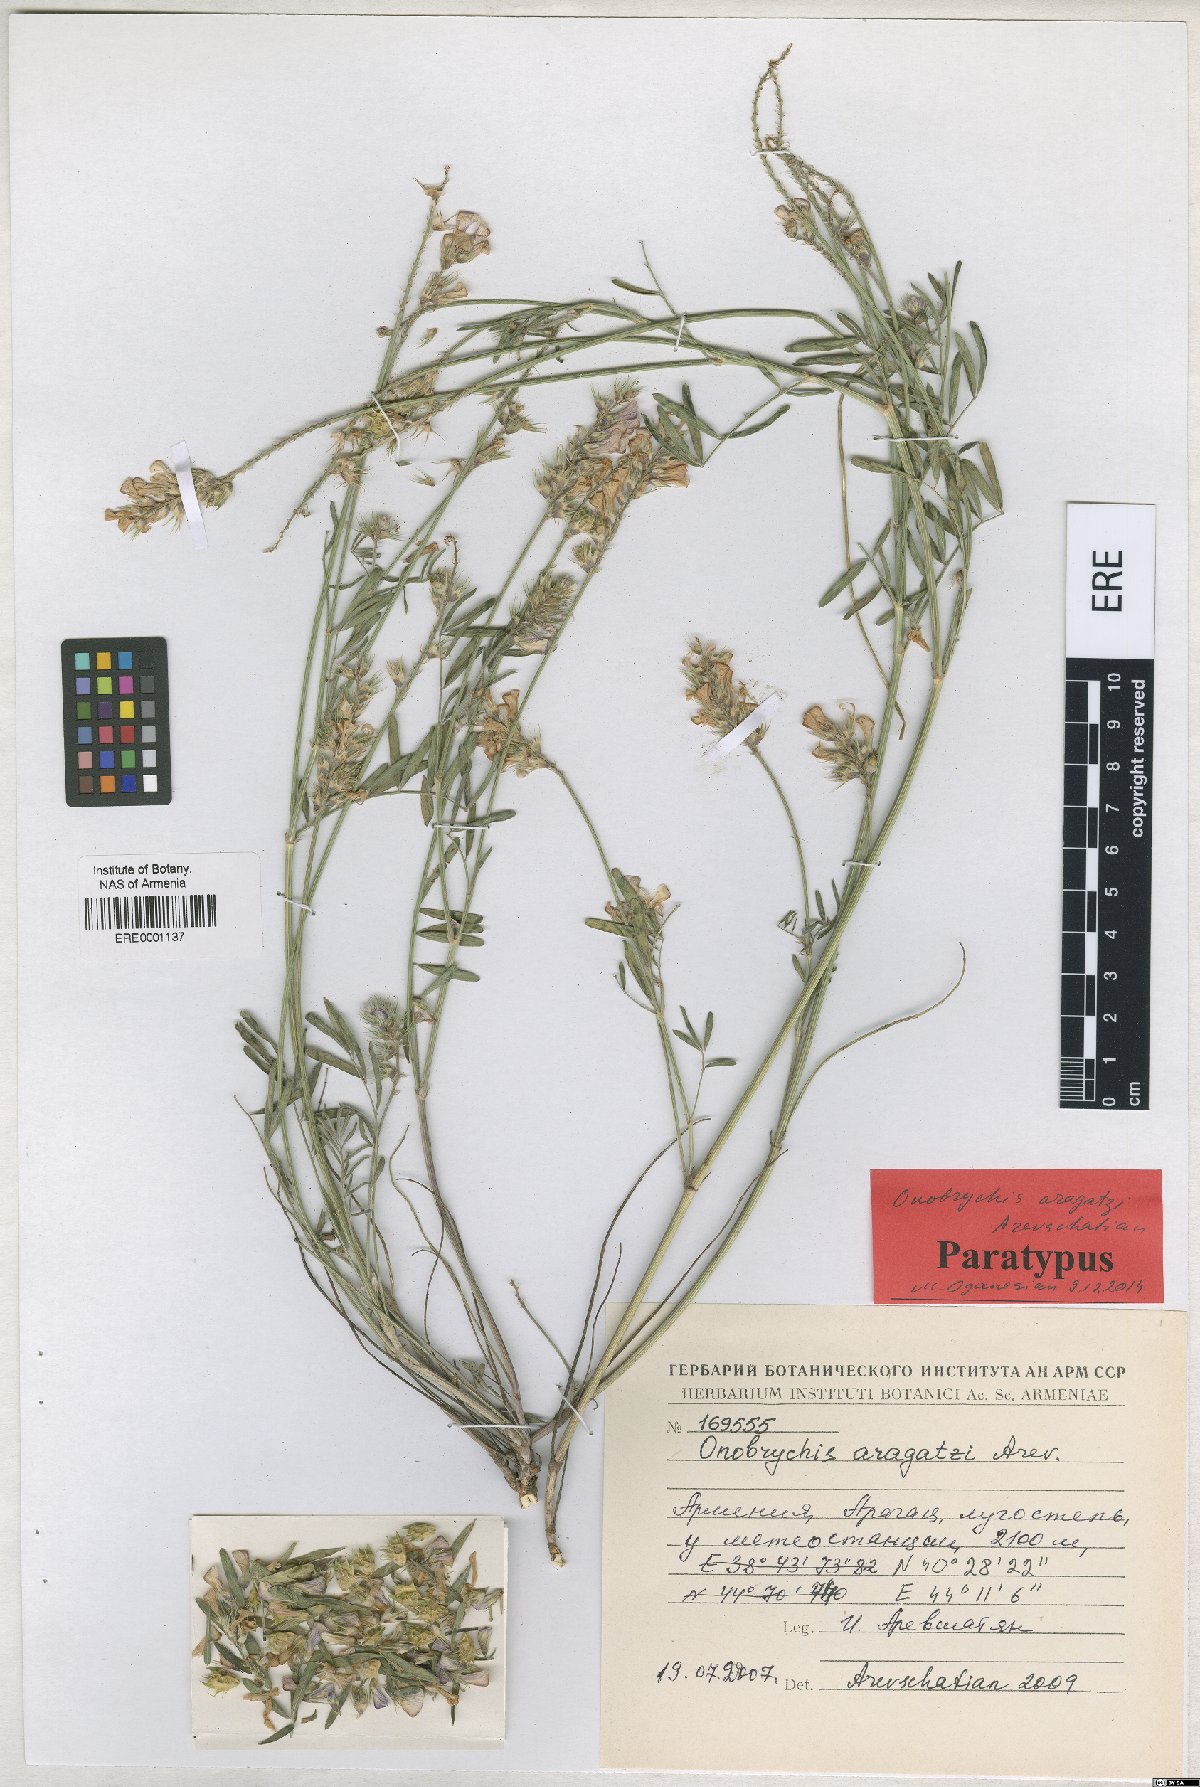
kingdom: Plantae
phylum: Tracheophyta
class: Magnoliopsida
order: Fabales
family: Fabaceae
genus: Onobrychis
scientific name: Onobrychis aragatzi
